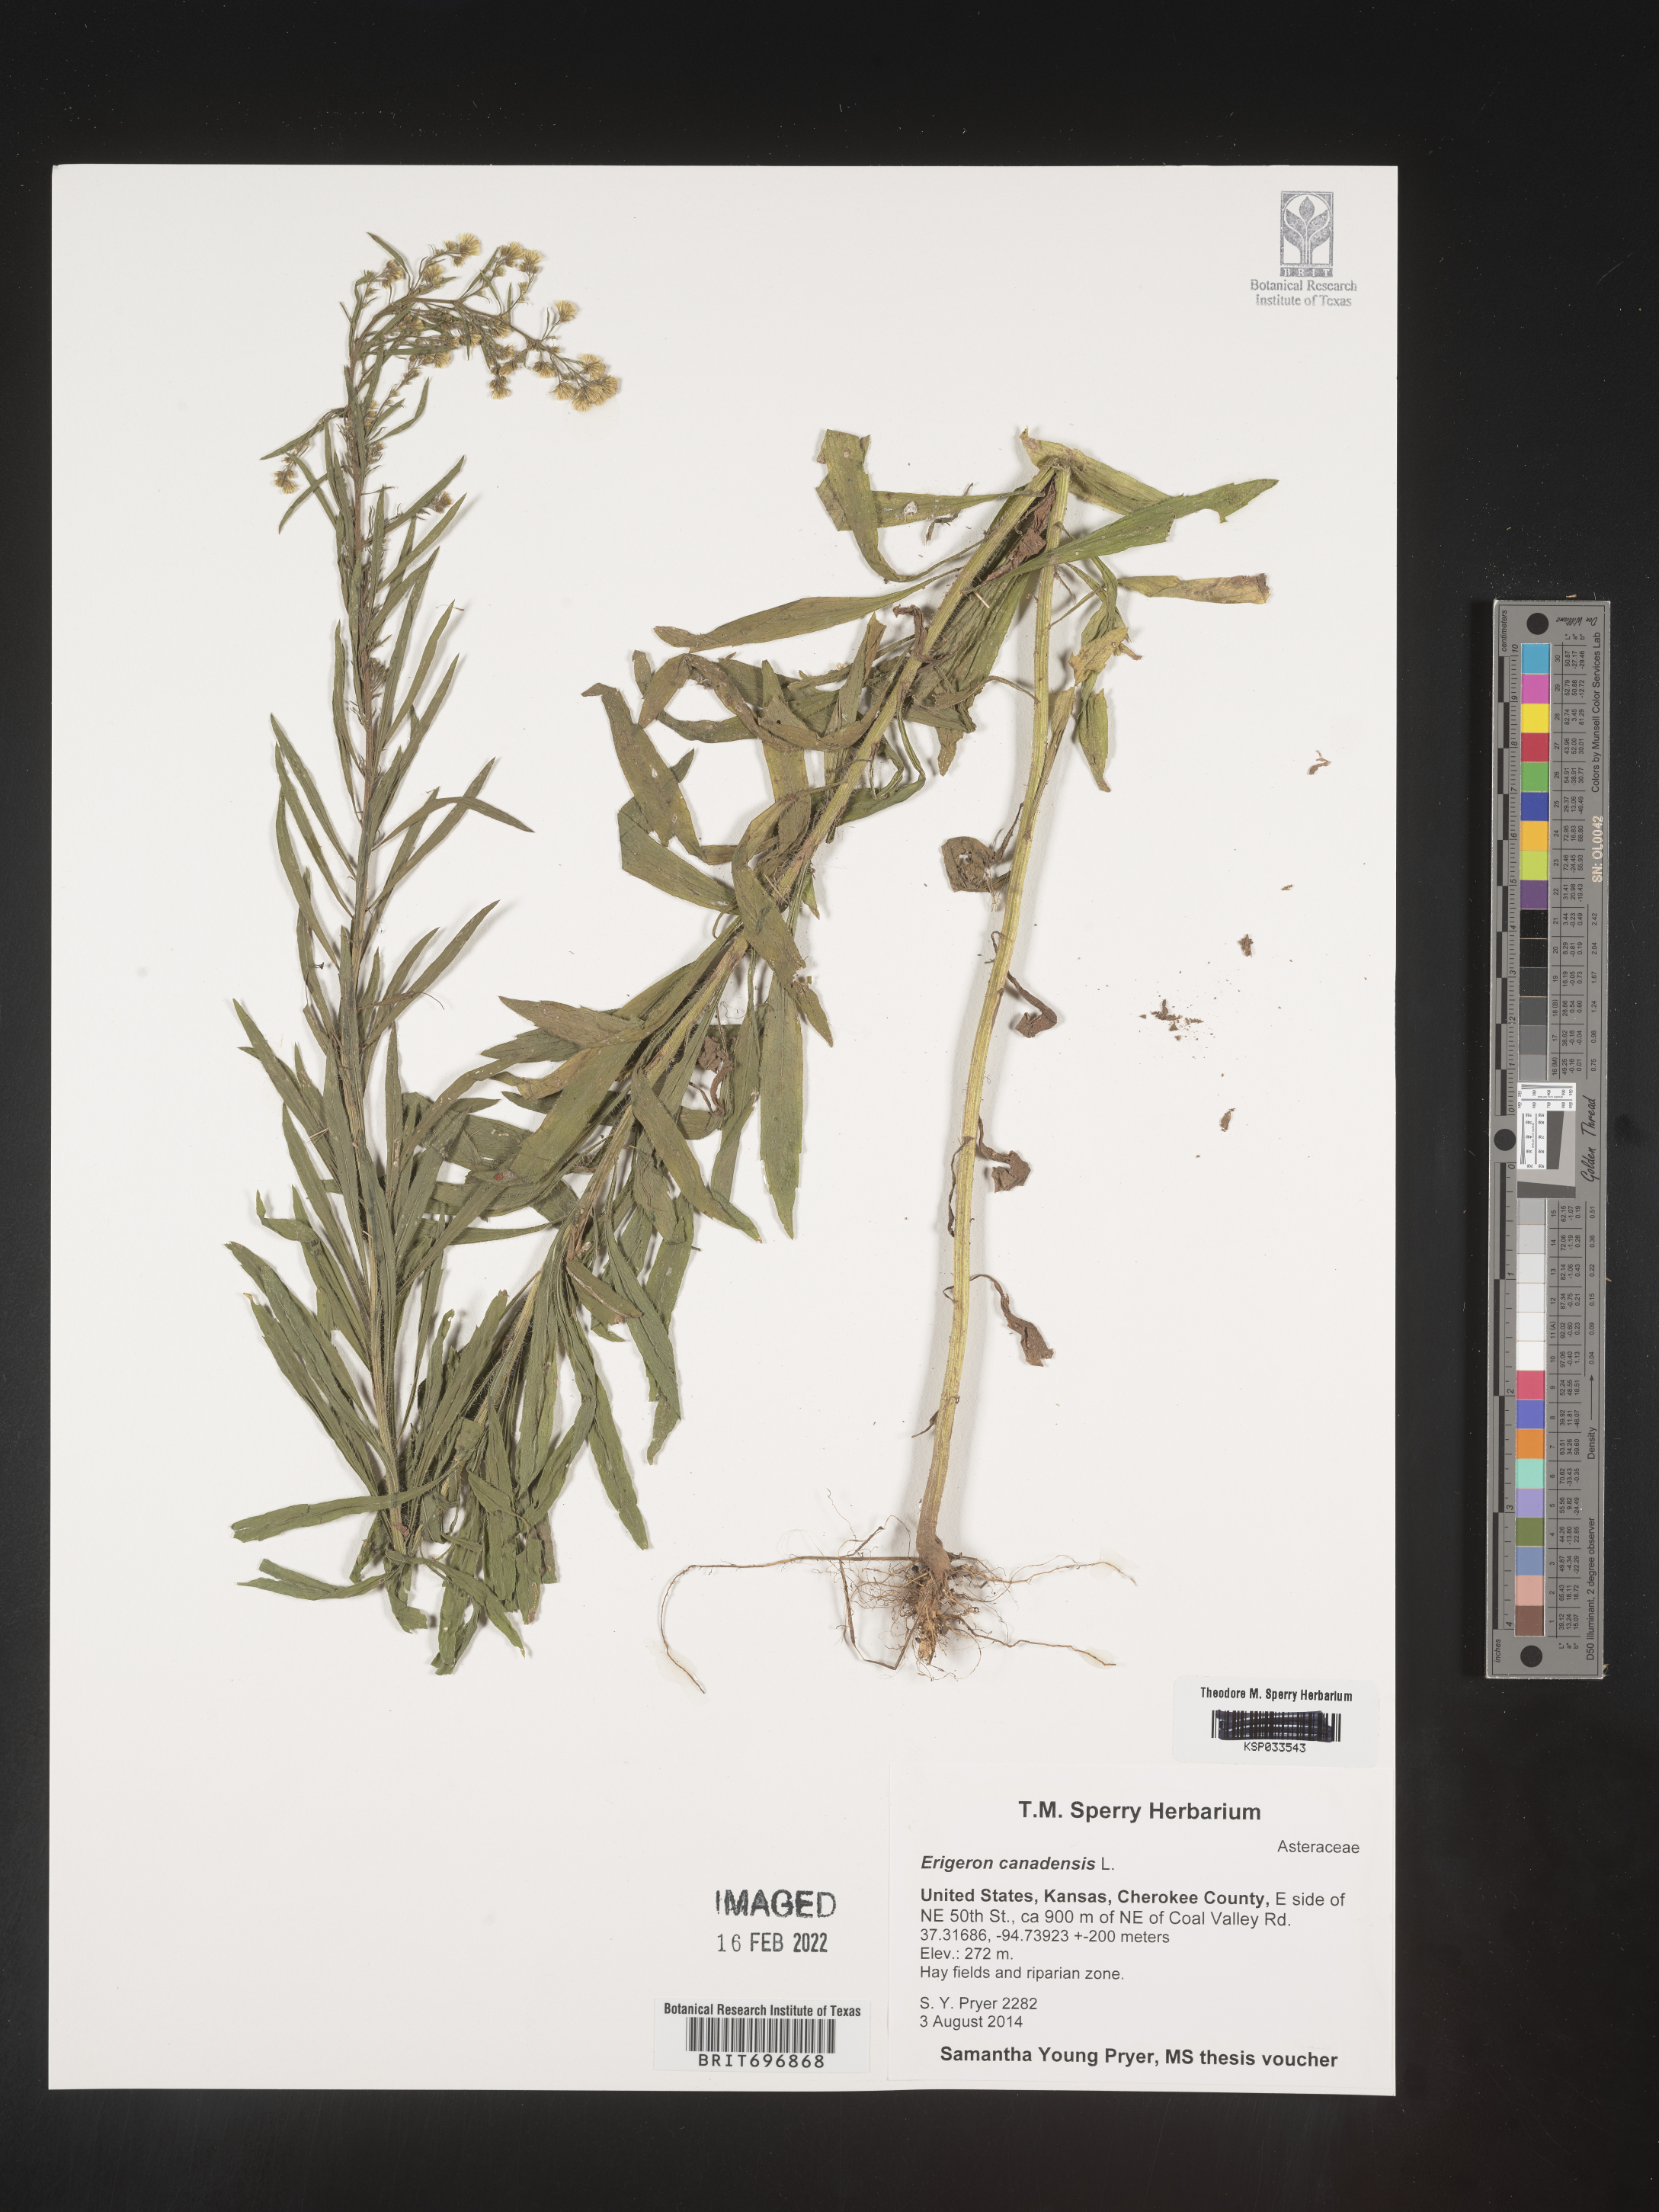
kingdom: Plantae
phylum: Tracheophyta
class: Magnoliopsida
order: Asterales
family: Asteraceae
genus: Erigeron
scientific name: Erigeron canadensis
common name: Canadian fleabane
